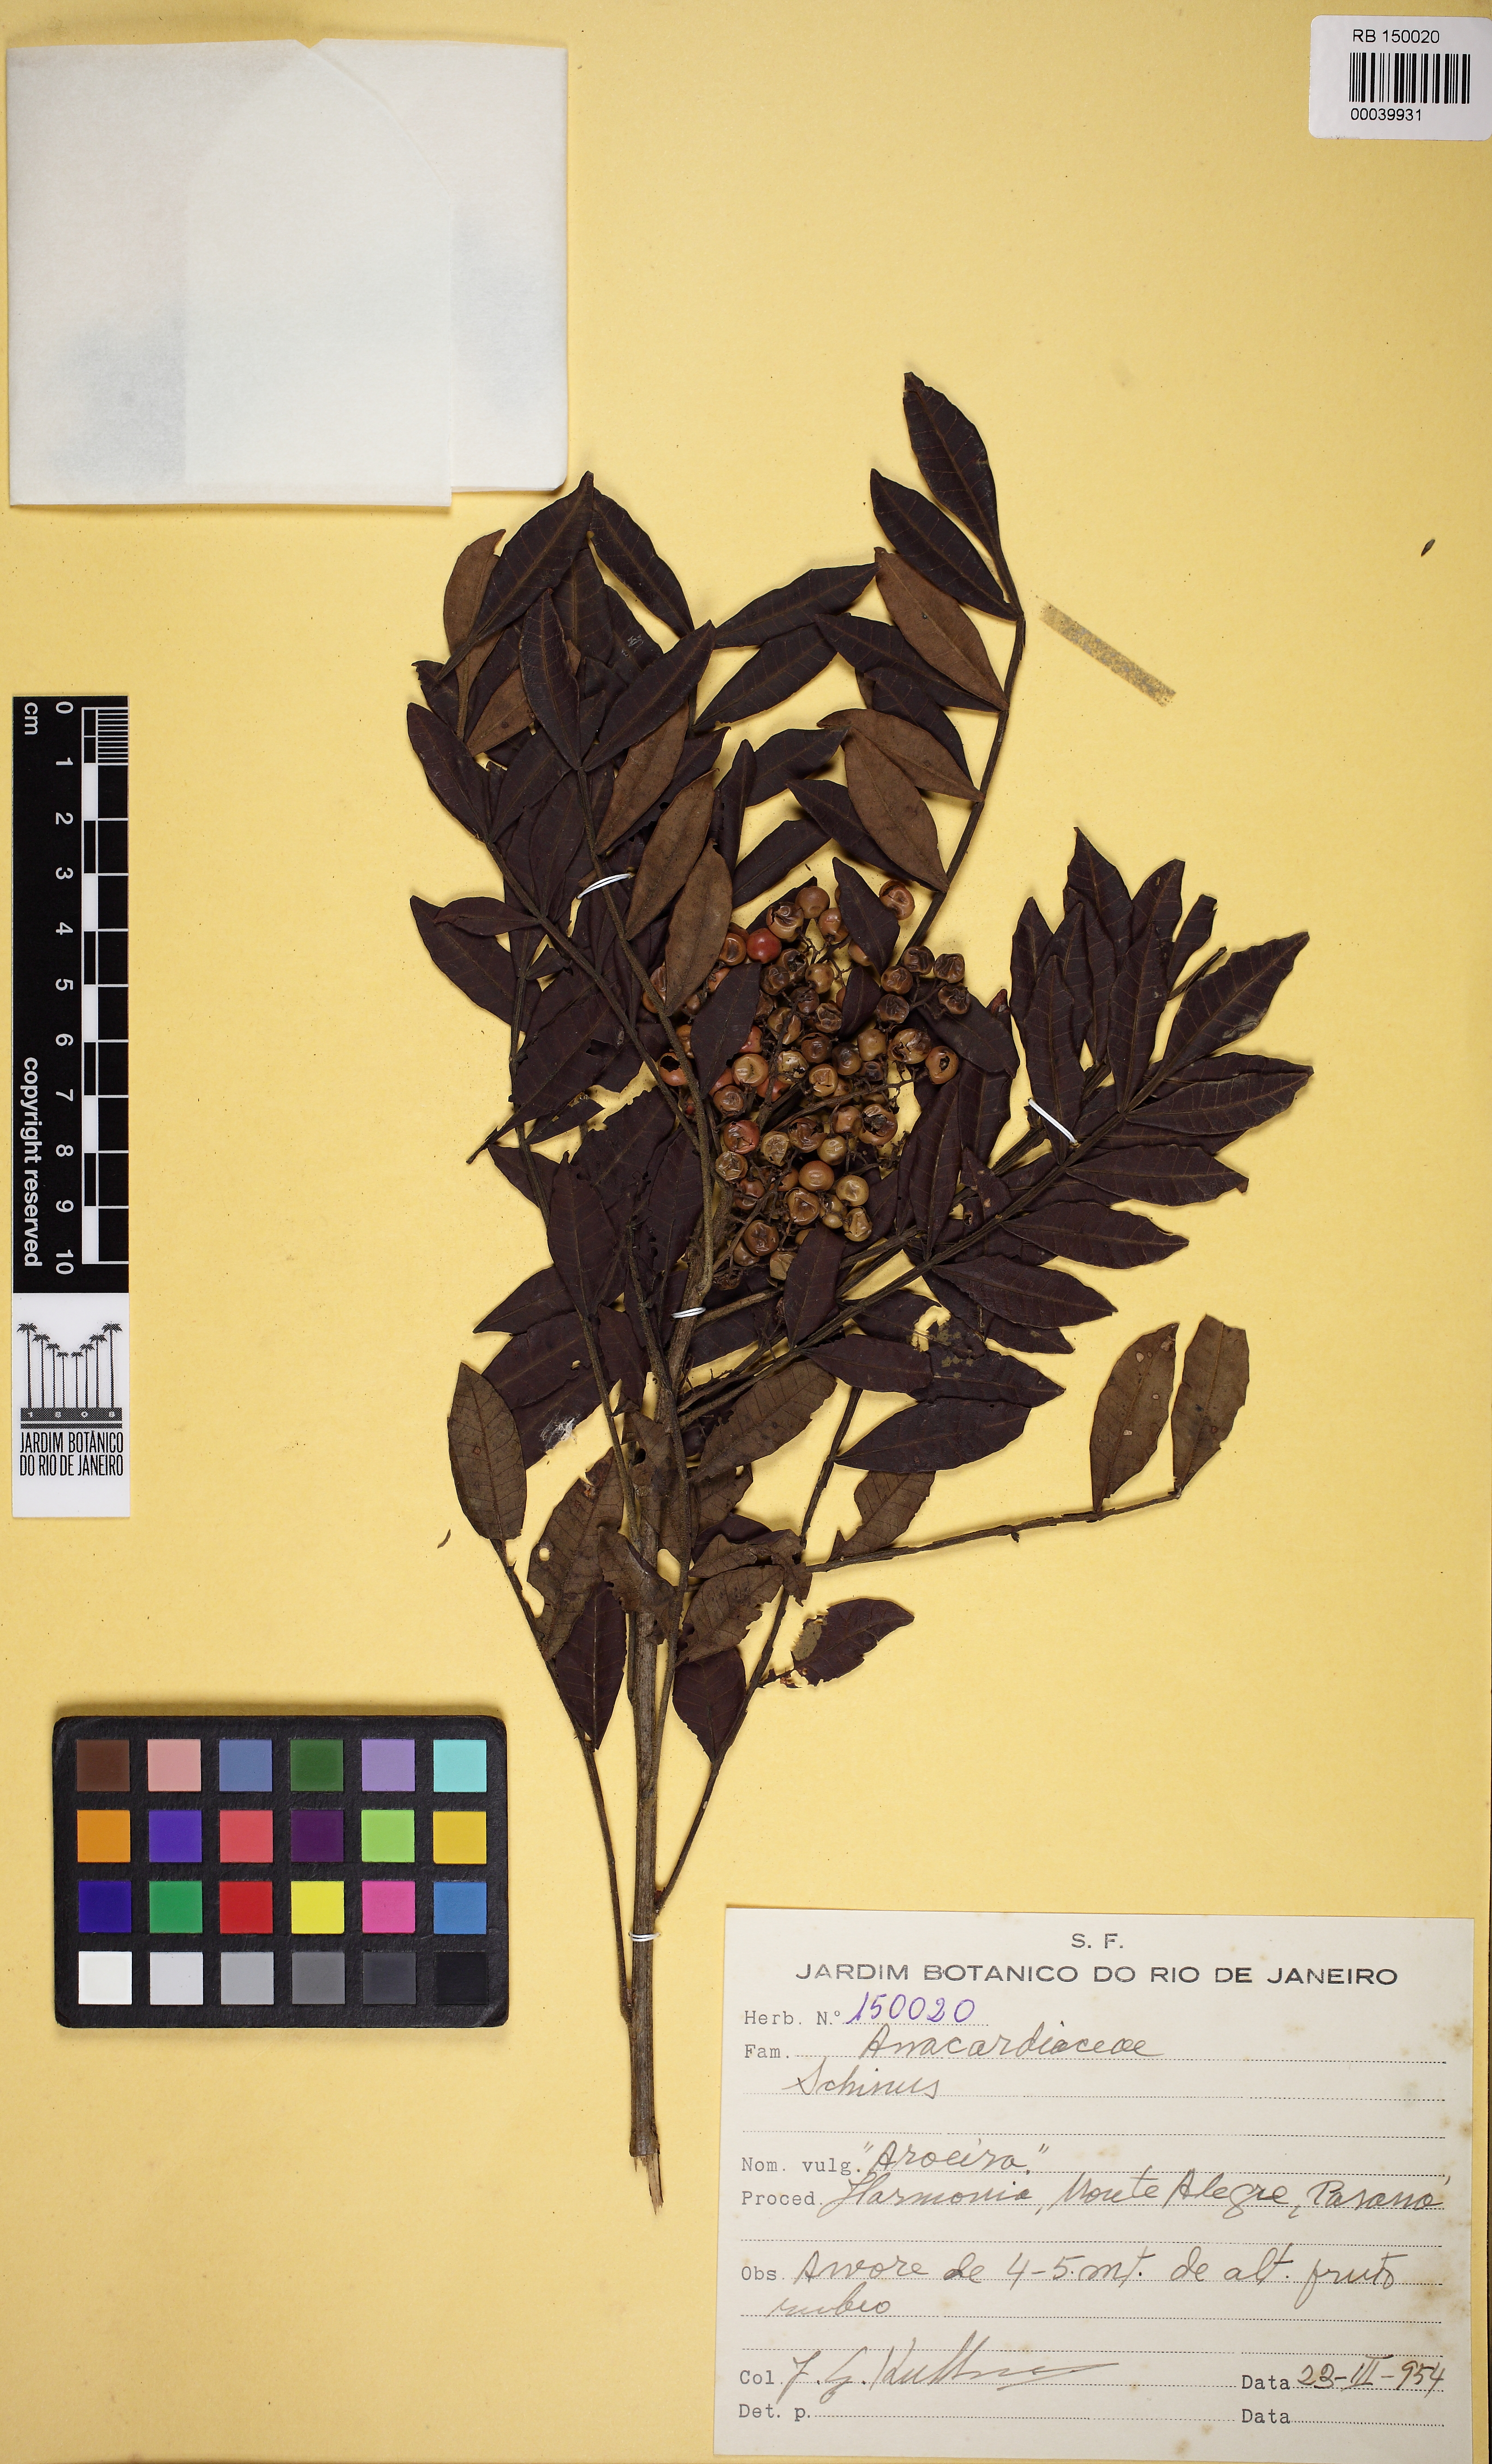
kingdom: Plantae
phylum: Tracheophyta
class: Magnoliopsida
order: Sapindales
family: Anacardiaceae
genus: Schinus
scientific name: Schinus
